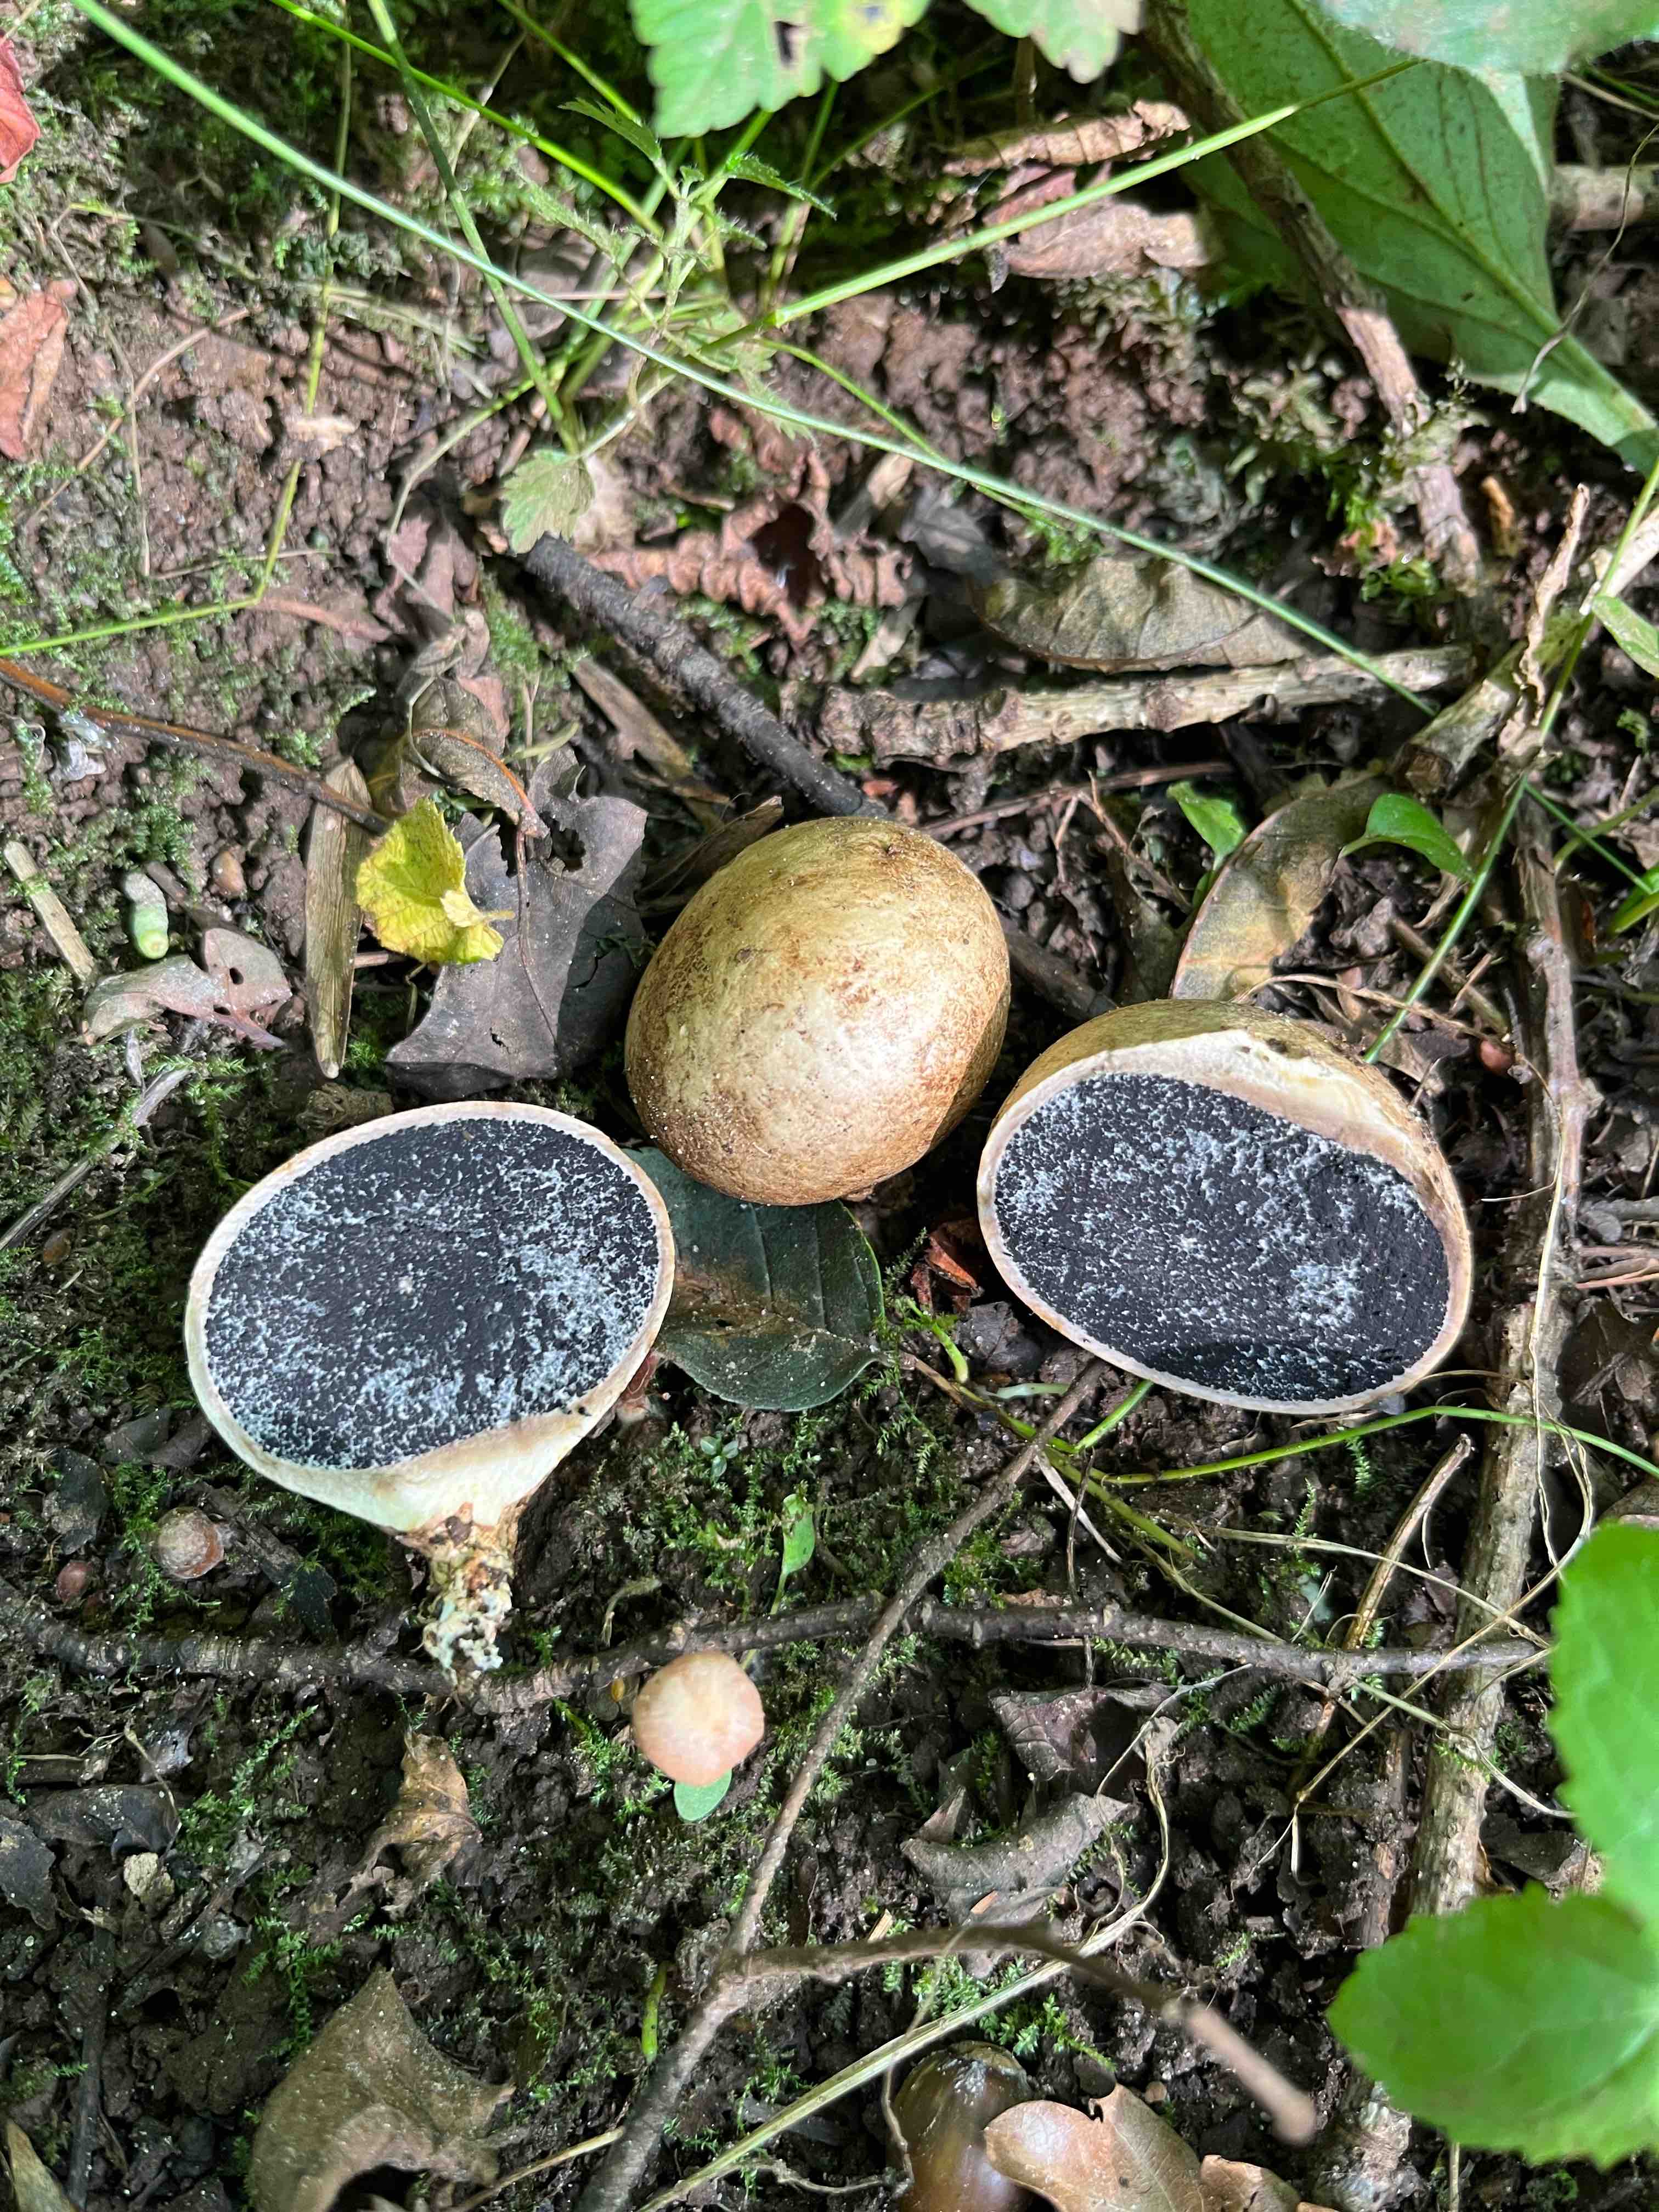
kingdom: Fungi
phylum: Basidiomycota
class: Agaricomycetes
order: Boletales
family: Sclerodermataceae
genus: Scleroderma
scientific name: Scleroderma bovista
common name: bovist-bruskbold
